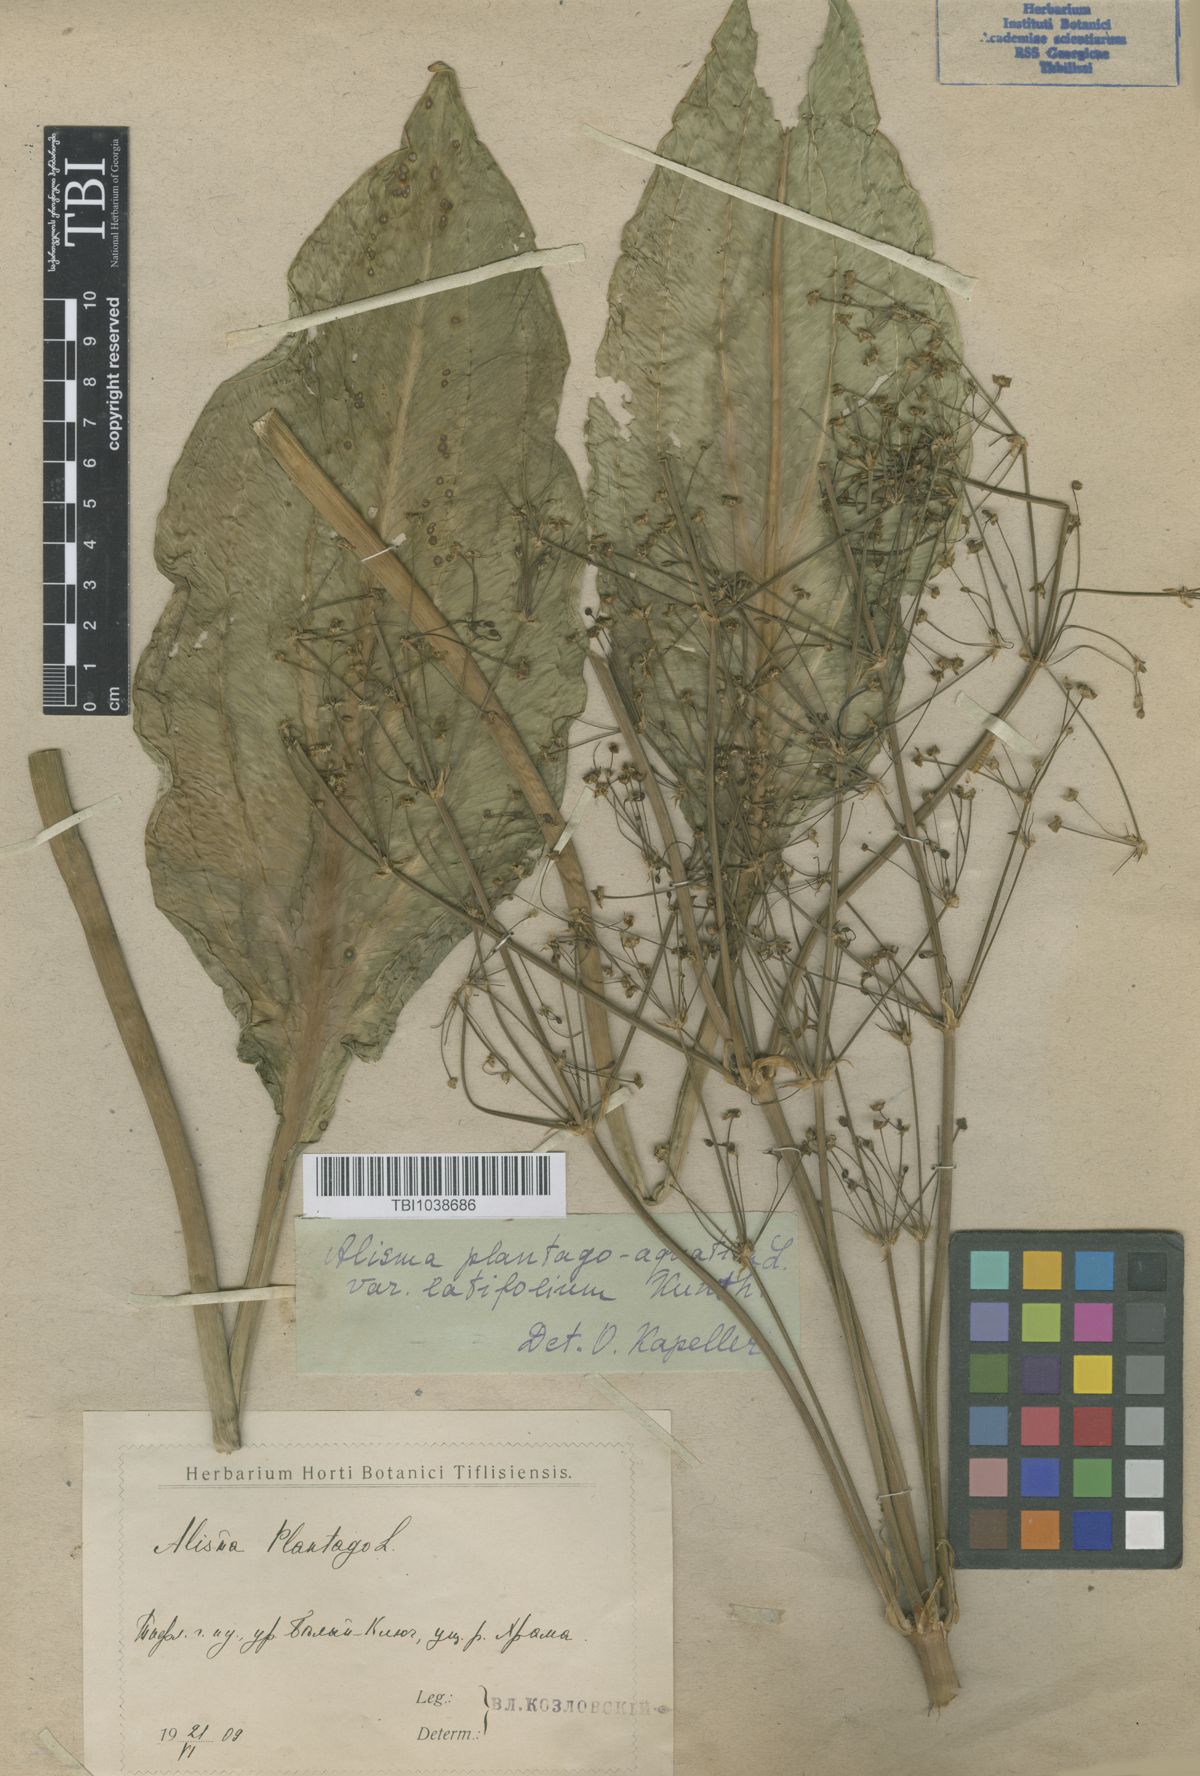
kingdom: Plantae
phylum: Tracheophyta
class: Liliopsida
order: Alismatales
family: Alismataceae
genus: Alisma
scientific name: Alisma plantago-aquatica
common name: Water-plantain
